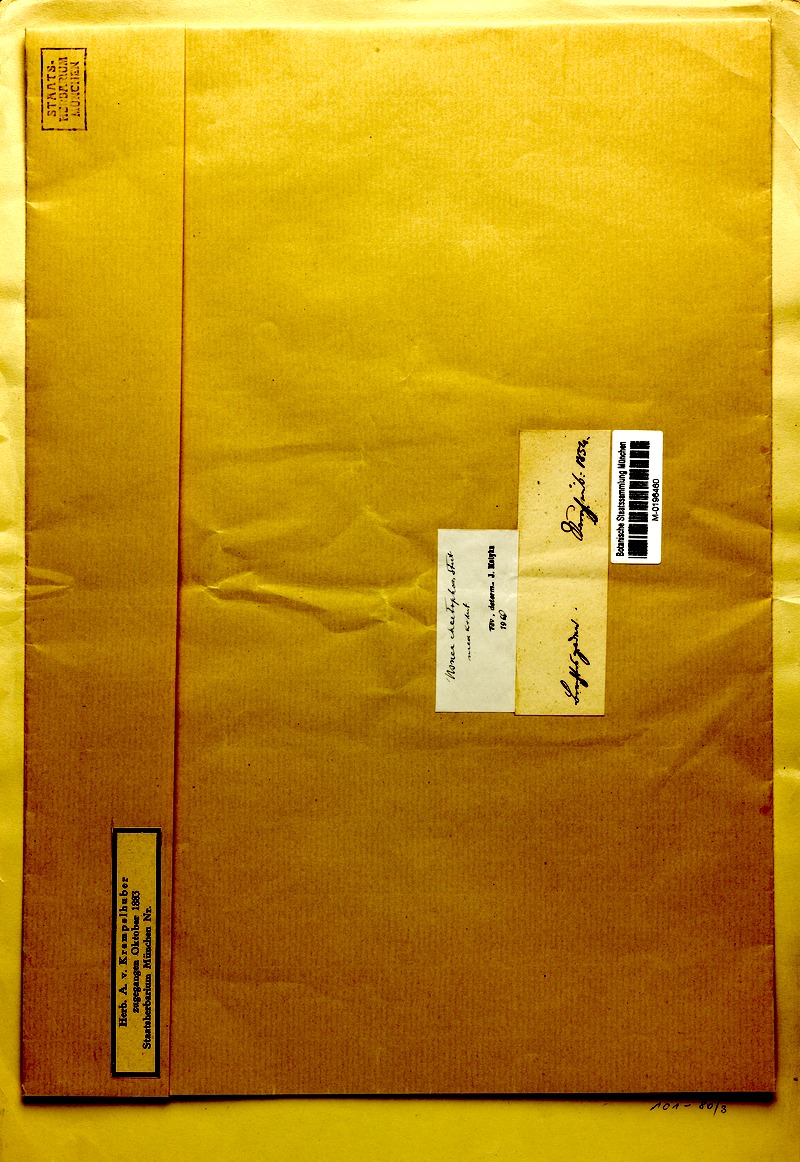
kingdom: Fungi
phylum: Ascomycota
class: Lecanoromycetes
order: Lecanorales
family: Parmeliaceae
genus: Usnea
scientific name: Usnea chaetophora
